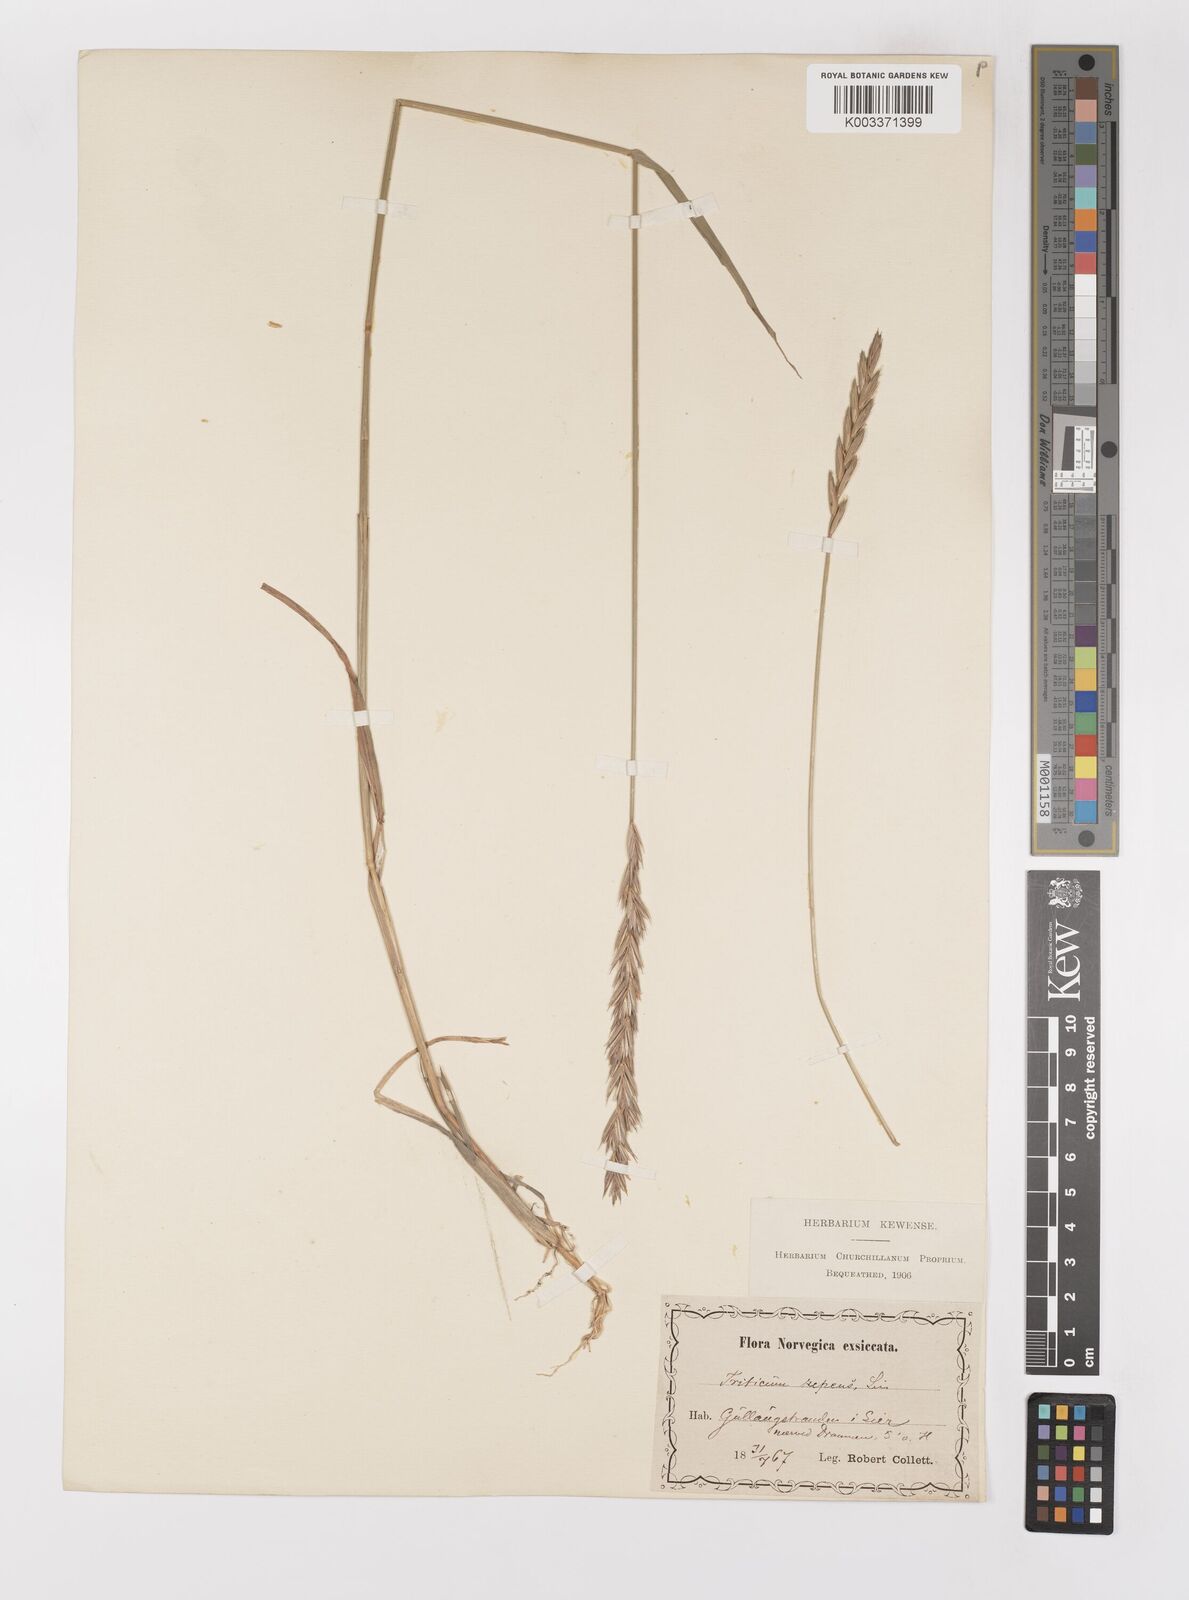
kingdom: Plantae
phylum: Tracheophyta
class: Liliopsida
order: Poales
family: Poaceae
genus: Elymus
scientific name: Elymus repens
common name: Quackgrass
